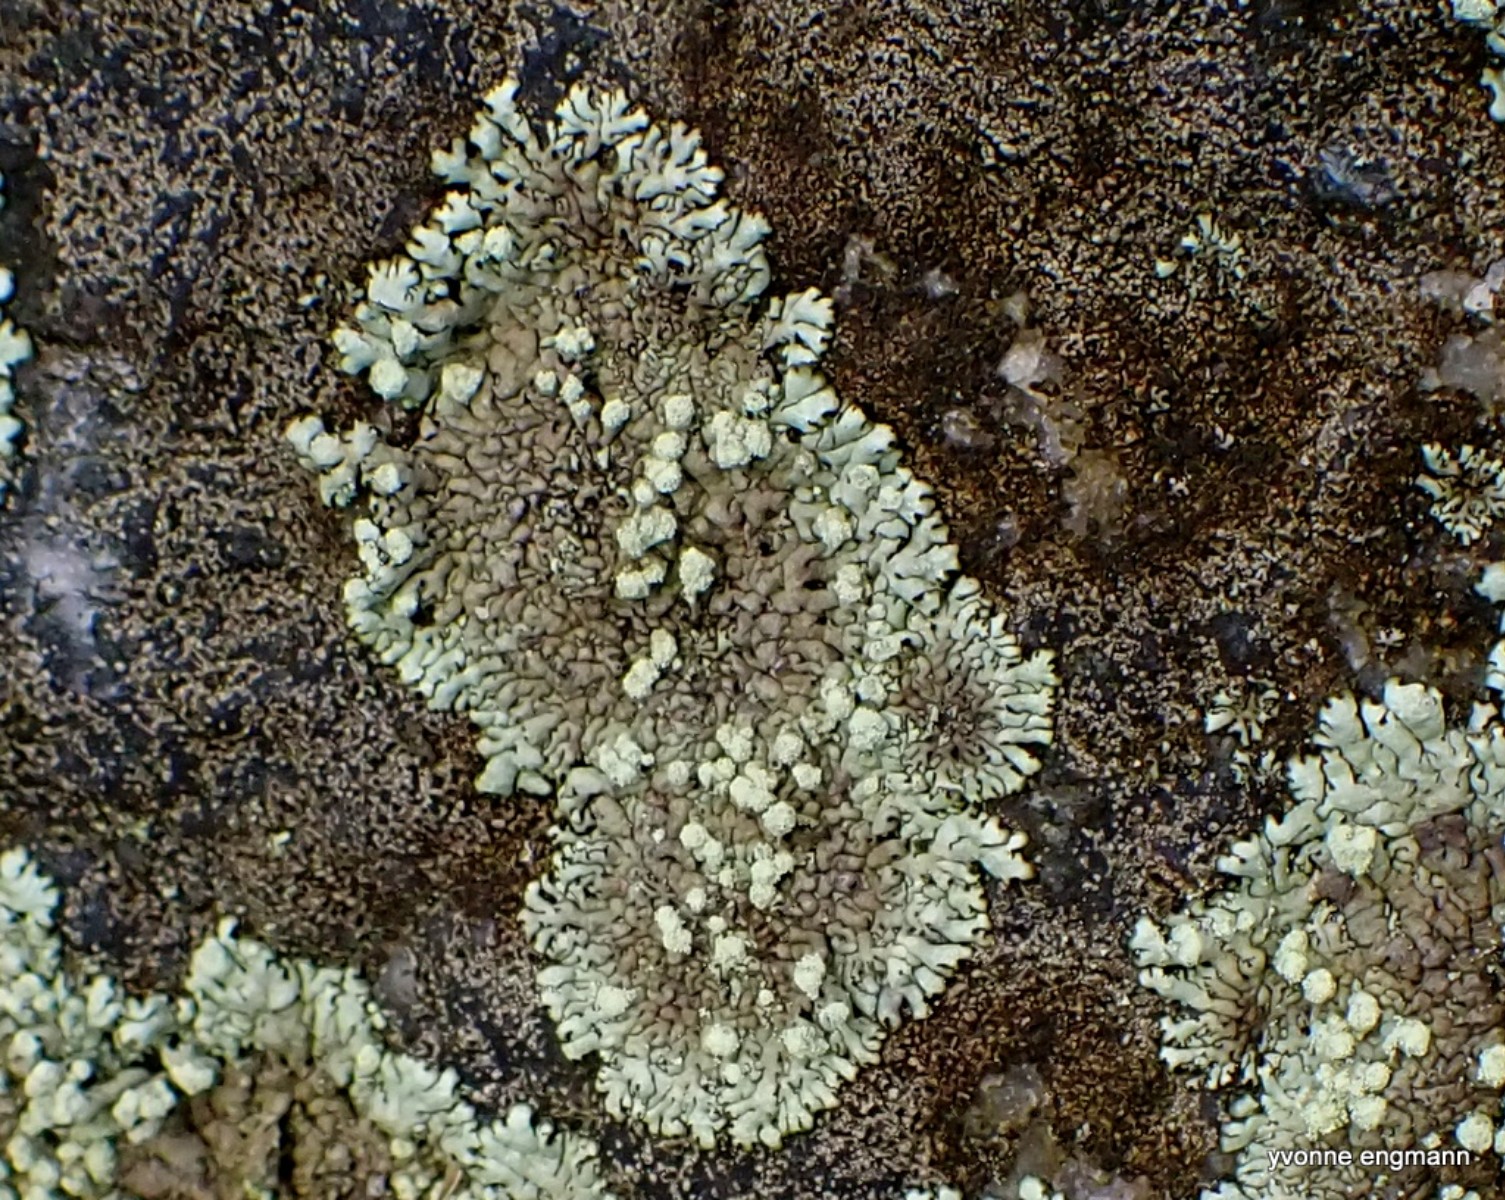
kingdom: Fungi
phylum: Ascomycota
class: Lecanoromycetes
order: Lecanorales
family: Parmeliaceae
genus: Xanthoparmelia
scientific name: Xanthoparmelia mougeotii
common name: liden skållav
